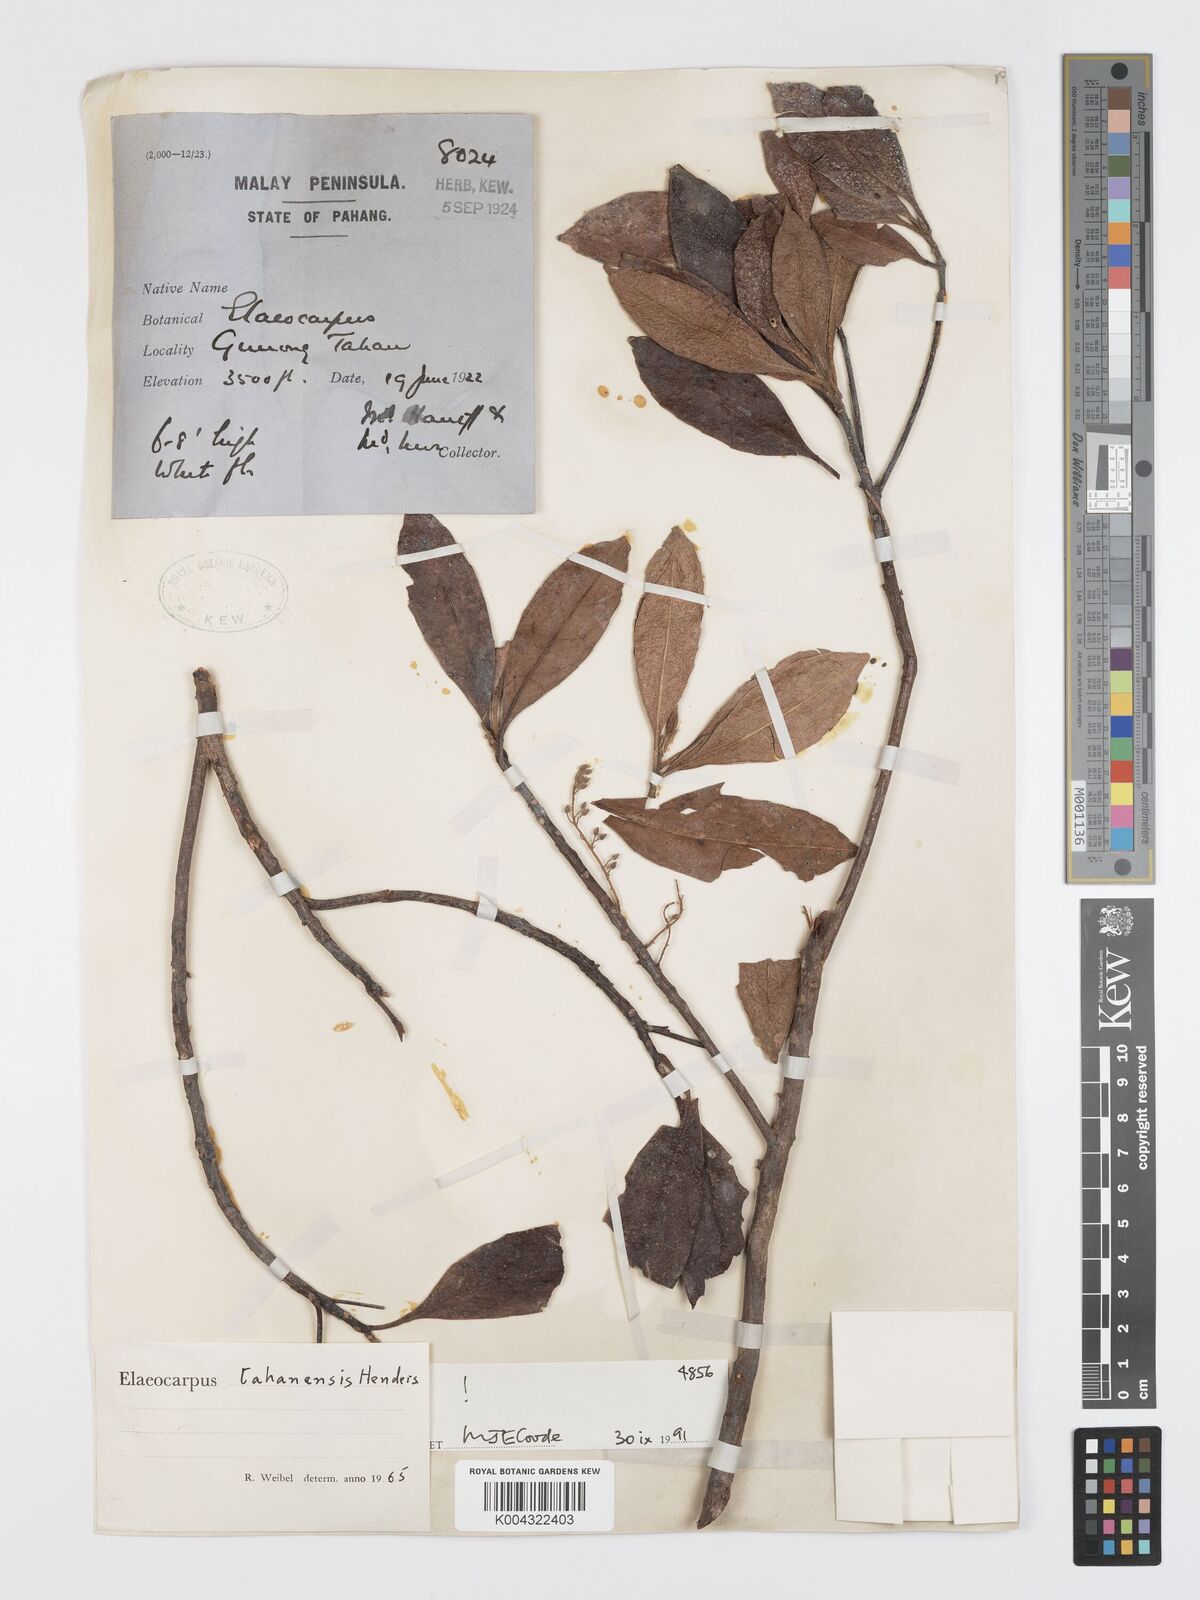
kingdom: Plantae
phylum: Tracheophyta
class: Magnoliopsida
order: Oxalidales
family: Elaeocarpaceae
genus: Elaeocarpus
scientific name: Elaeocarpus floribundus
